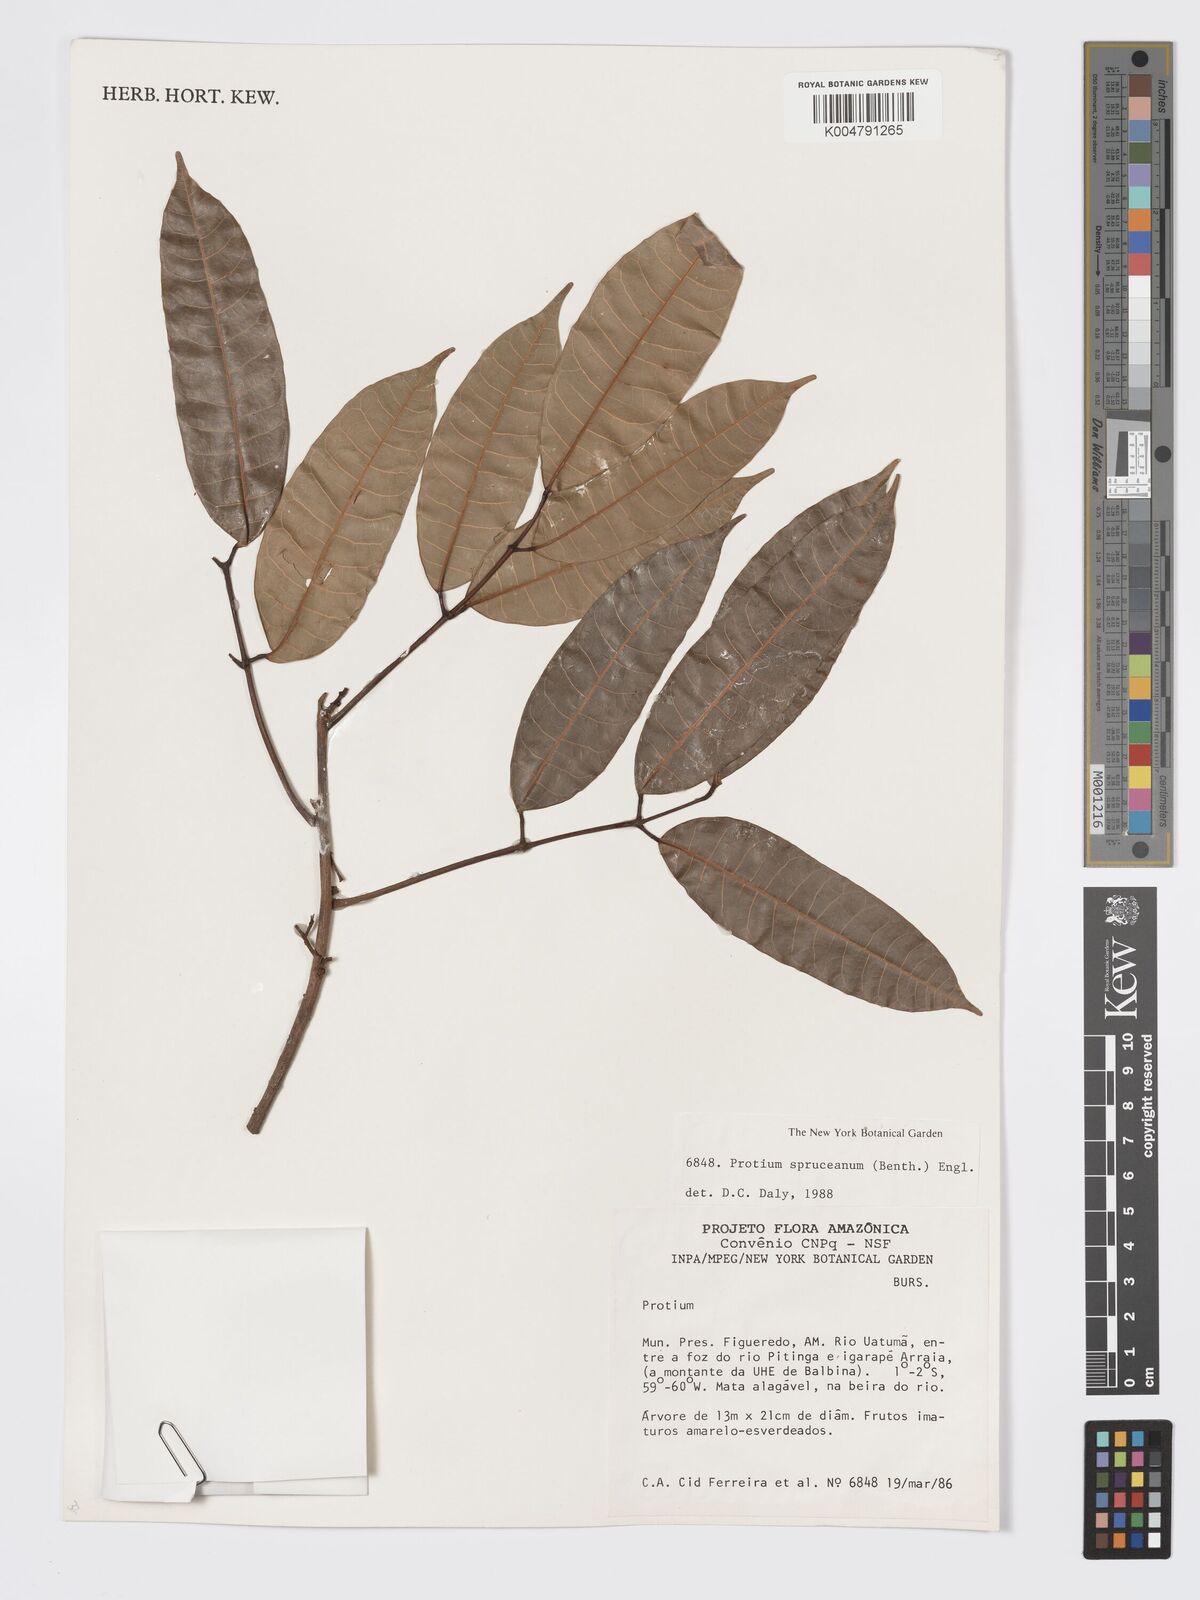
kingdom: Plantae
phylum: Tracheophyta
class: Magnoliopsida
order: Sapindales
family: Burseraceae
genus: Protium
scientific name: Protium spruceanum
